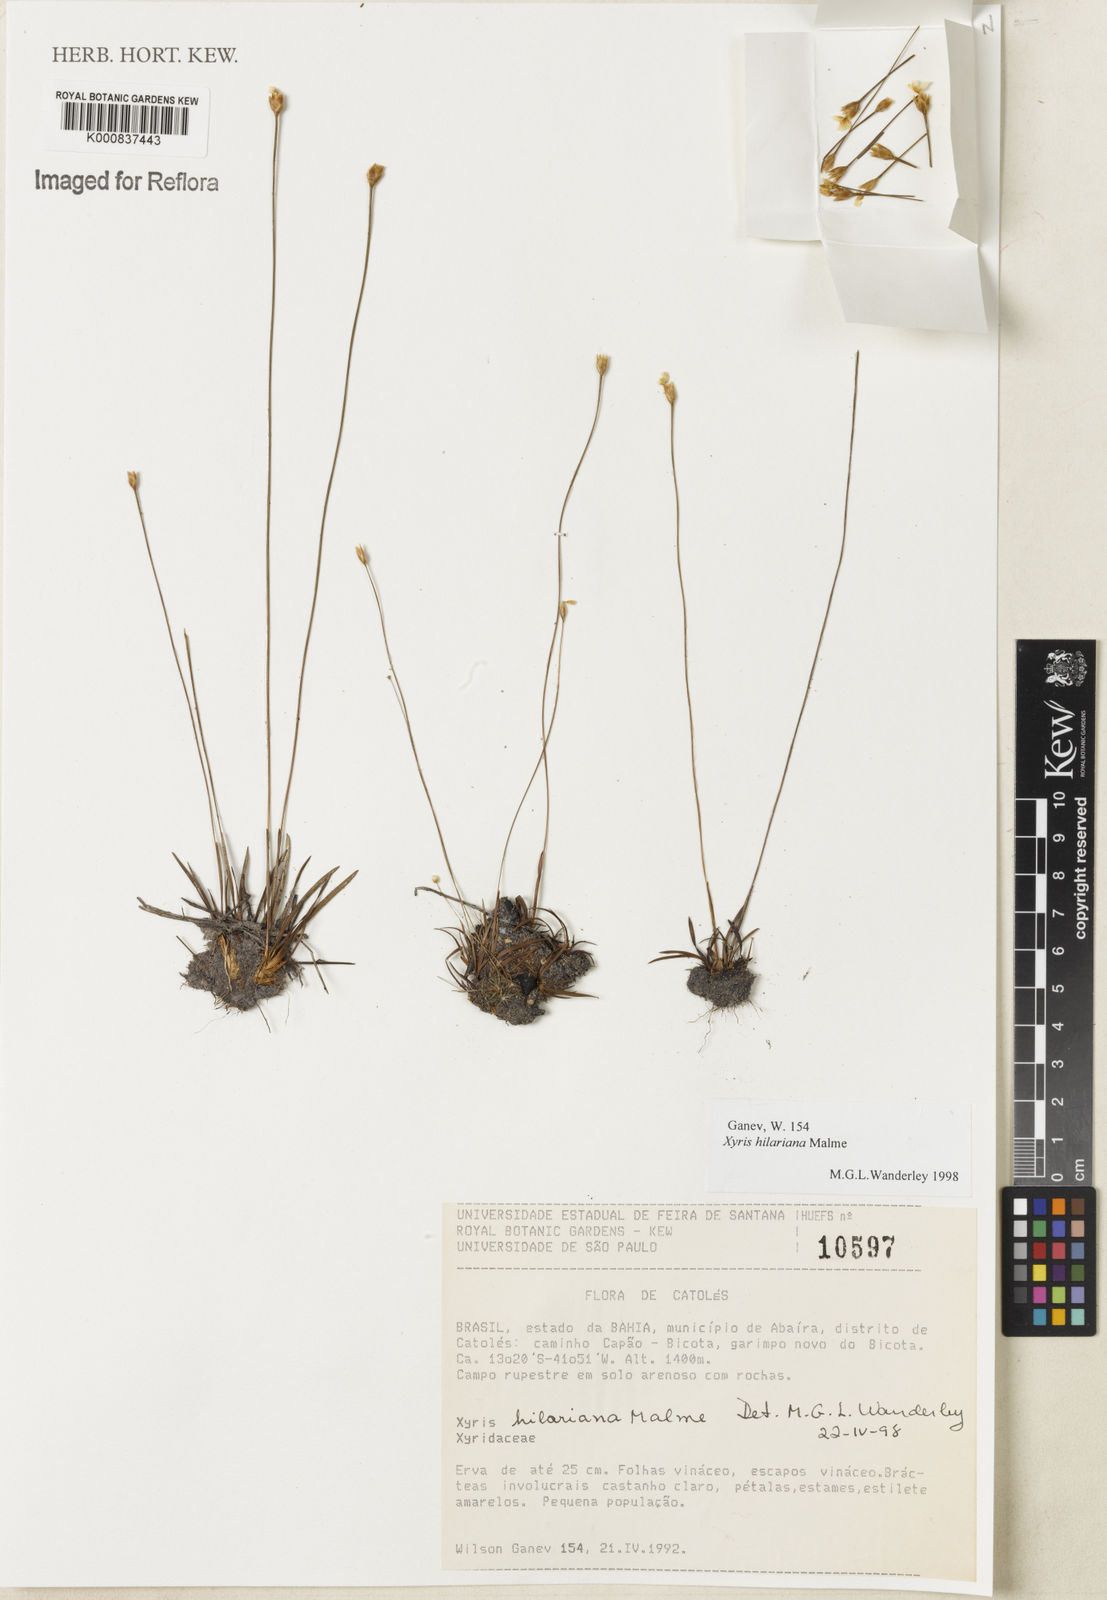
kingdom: Plantae
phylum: Tracheophyta
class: Liliopsida
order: Poales
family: Xyridaceae
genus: Xyris
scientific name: Xyris hilariana
